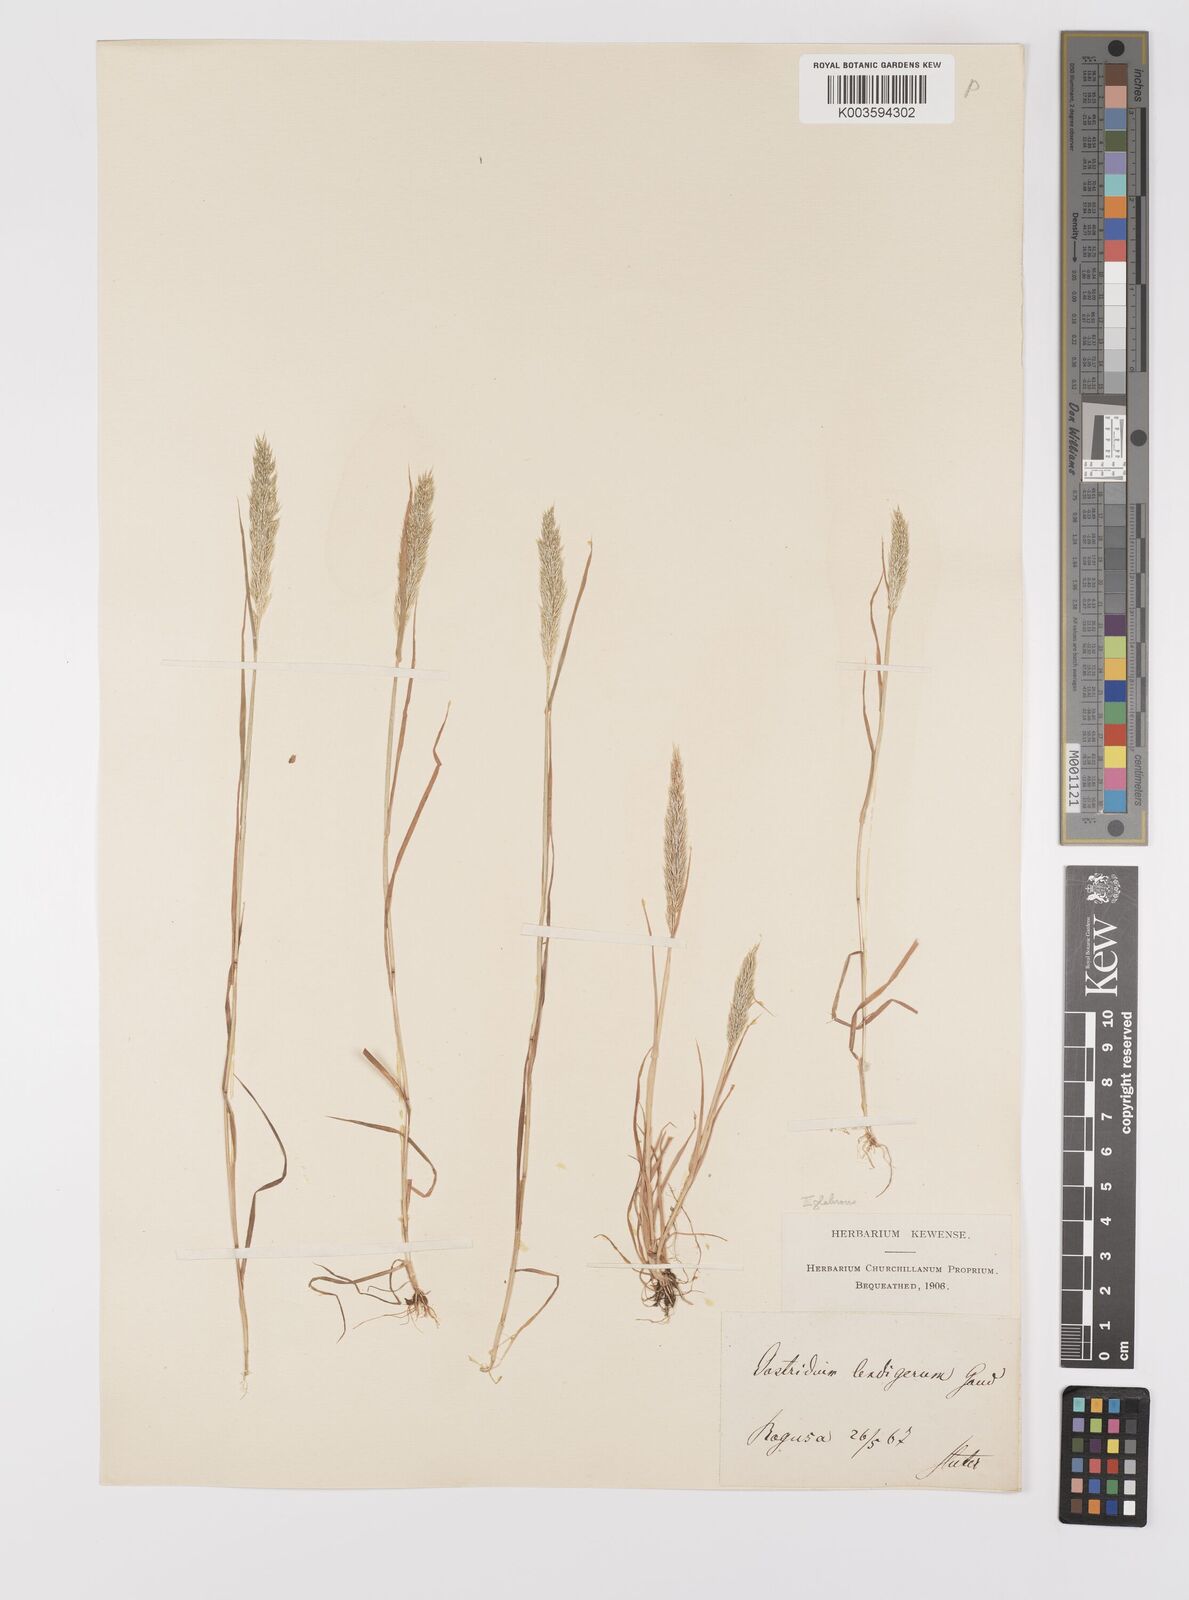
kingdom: Plantae
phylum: Tracheophyta
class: Liliopsida
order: Poales
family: Poaceae
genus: Gastridium
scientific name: Gastridium ventricosum
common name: Nit-grass
